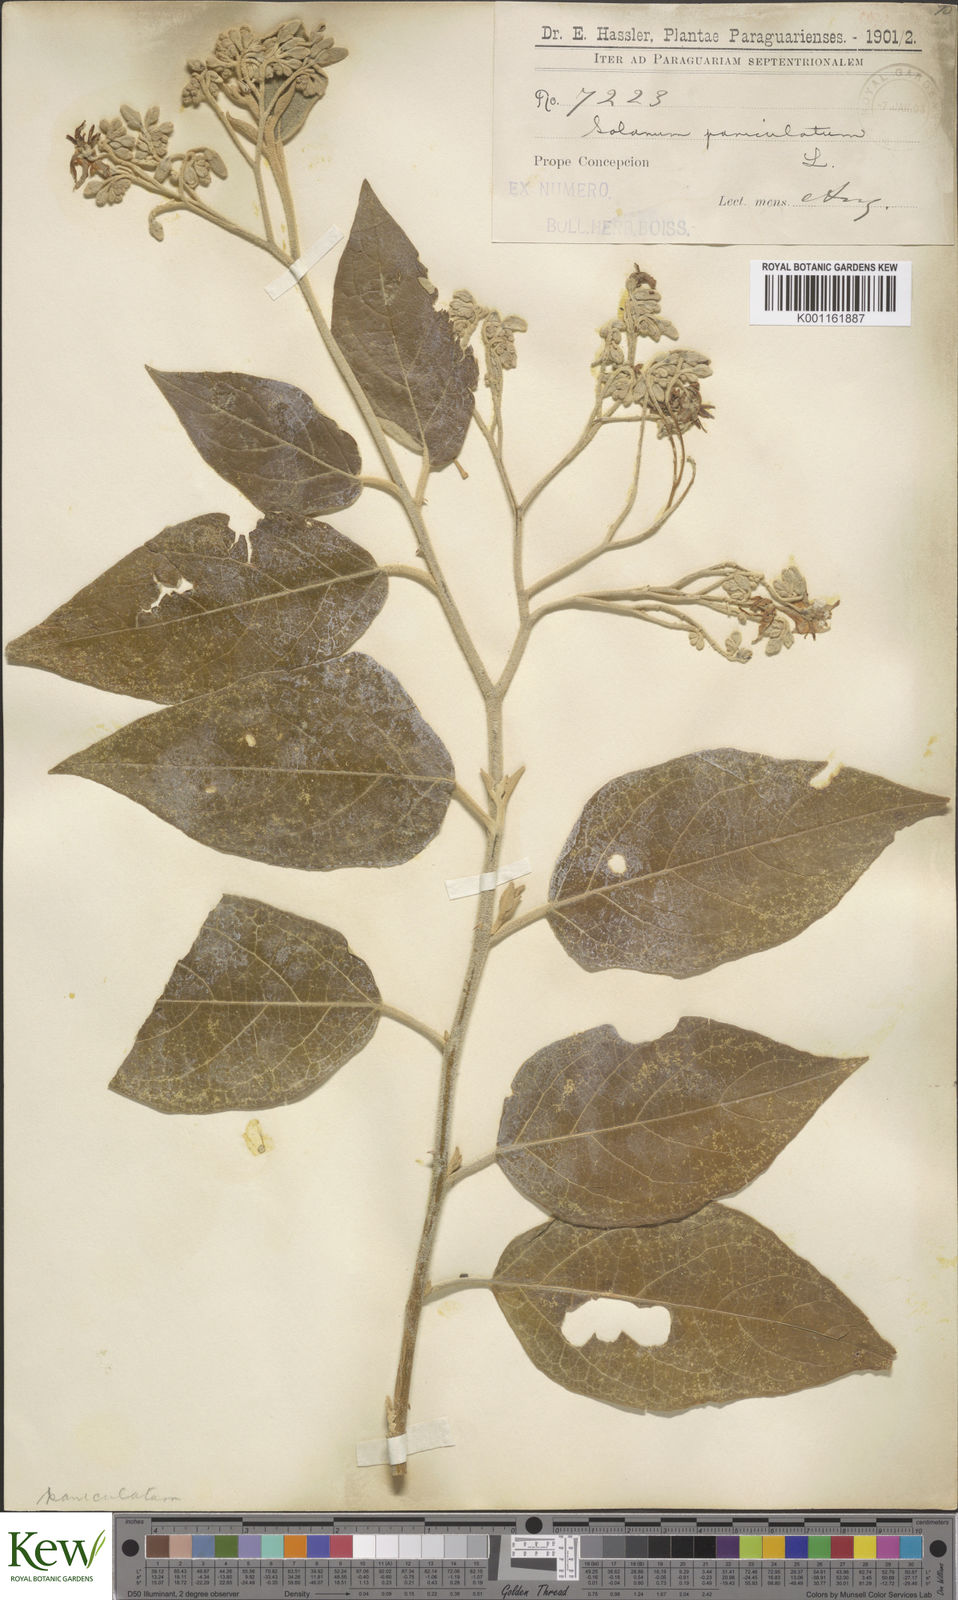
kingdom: Plantae
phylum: Tracheophyta
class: Magnoliopsida
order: Solanales
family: Solanaceae
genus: Solanum
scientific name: Solanum paniculatum
